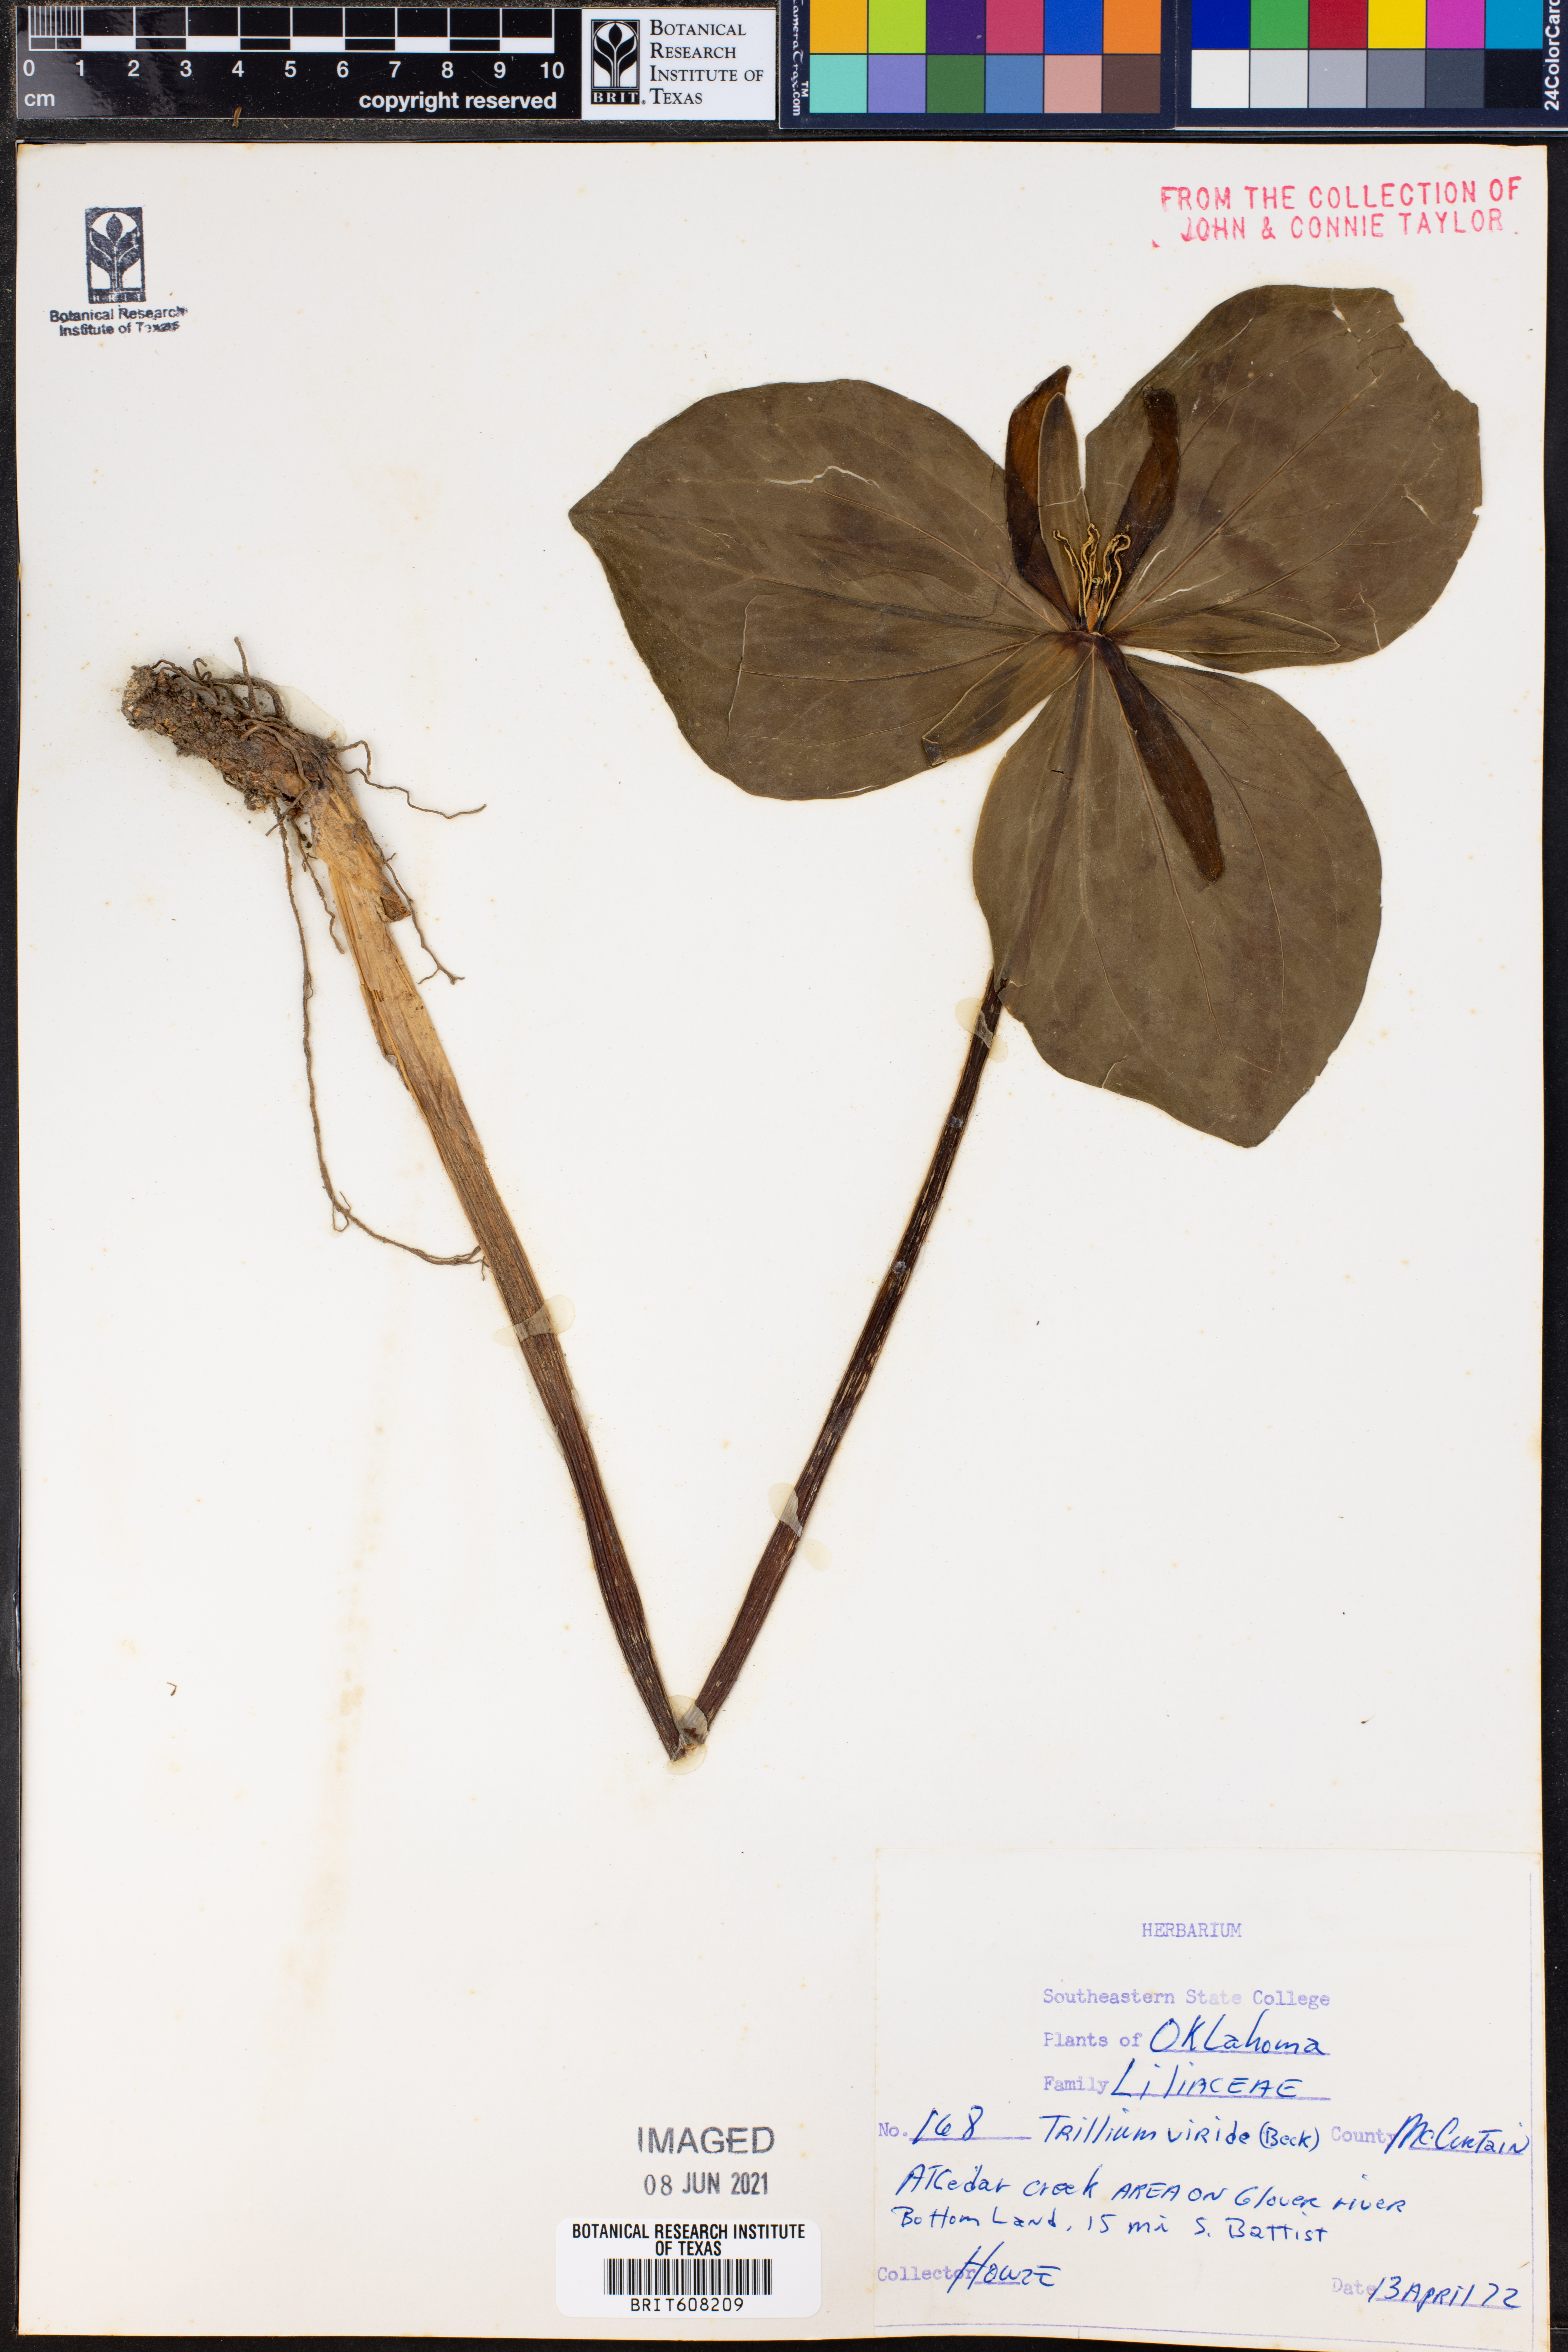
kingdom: Plantae
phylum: Tracheophyta
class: Liliopsida
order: Liliales
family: Melanthiaceae
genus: Trillium
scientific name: Trillium viride
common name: Green trillium
